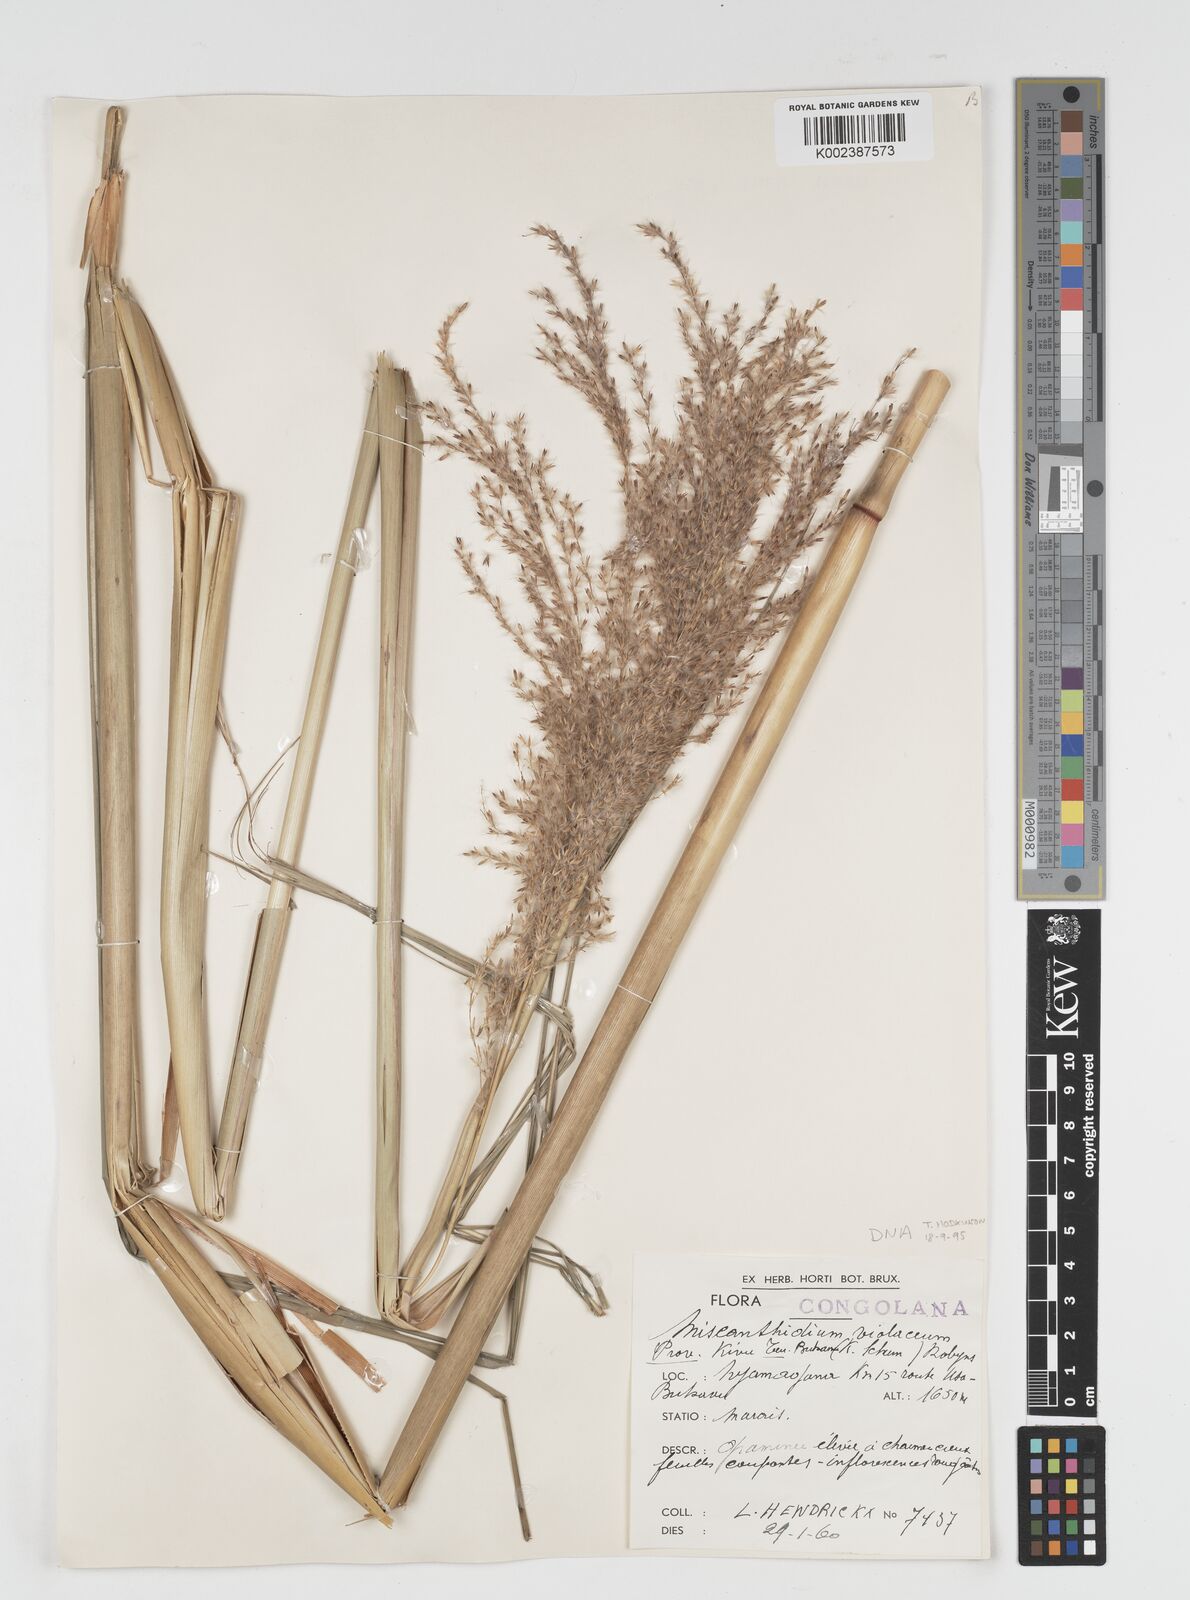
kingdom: Plantae
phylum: Tracheophyta
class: Liliopsida
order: Poales
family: Poaceae
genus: Miscanthidium
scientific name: Miscanthidium violaceum
